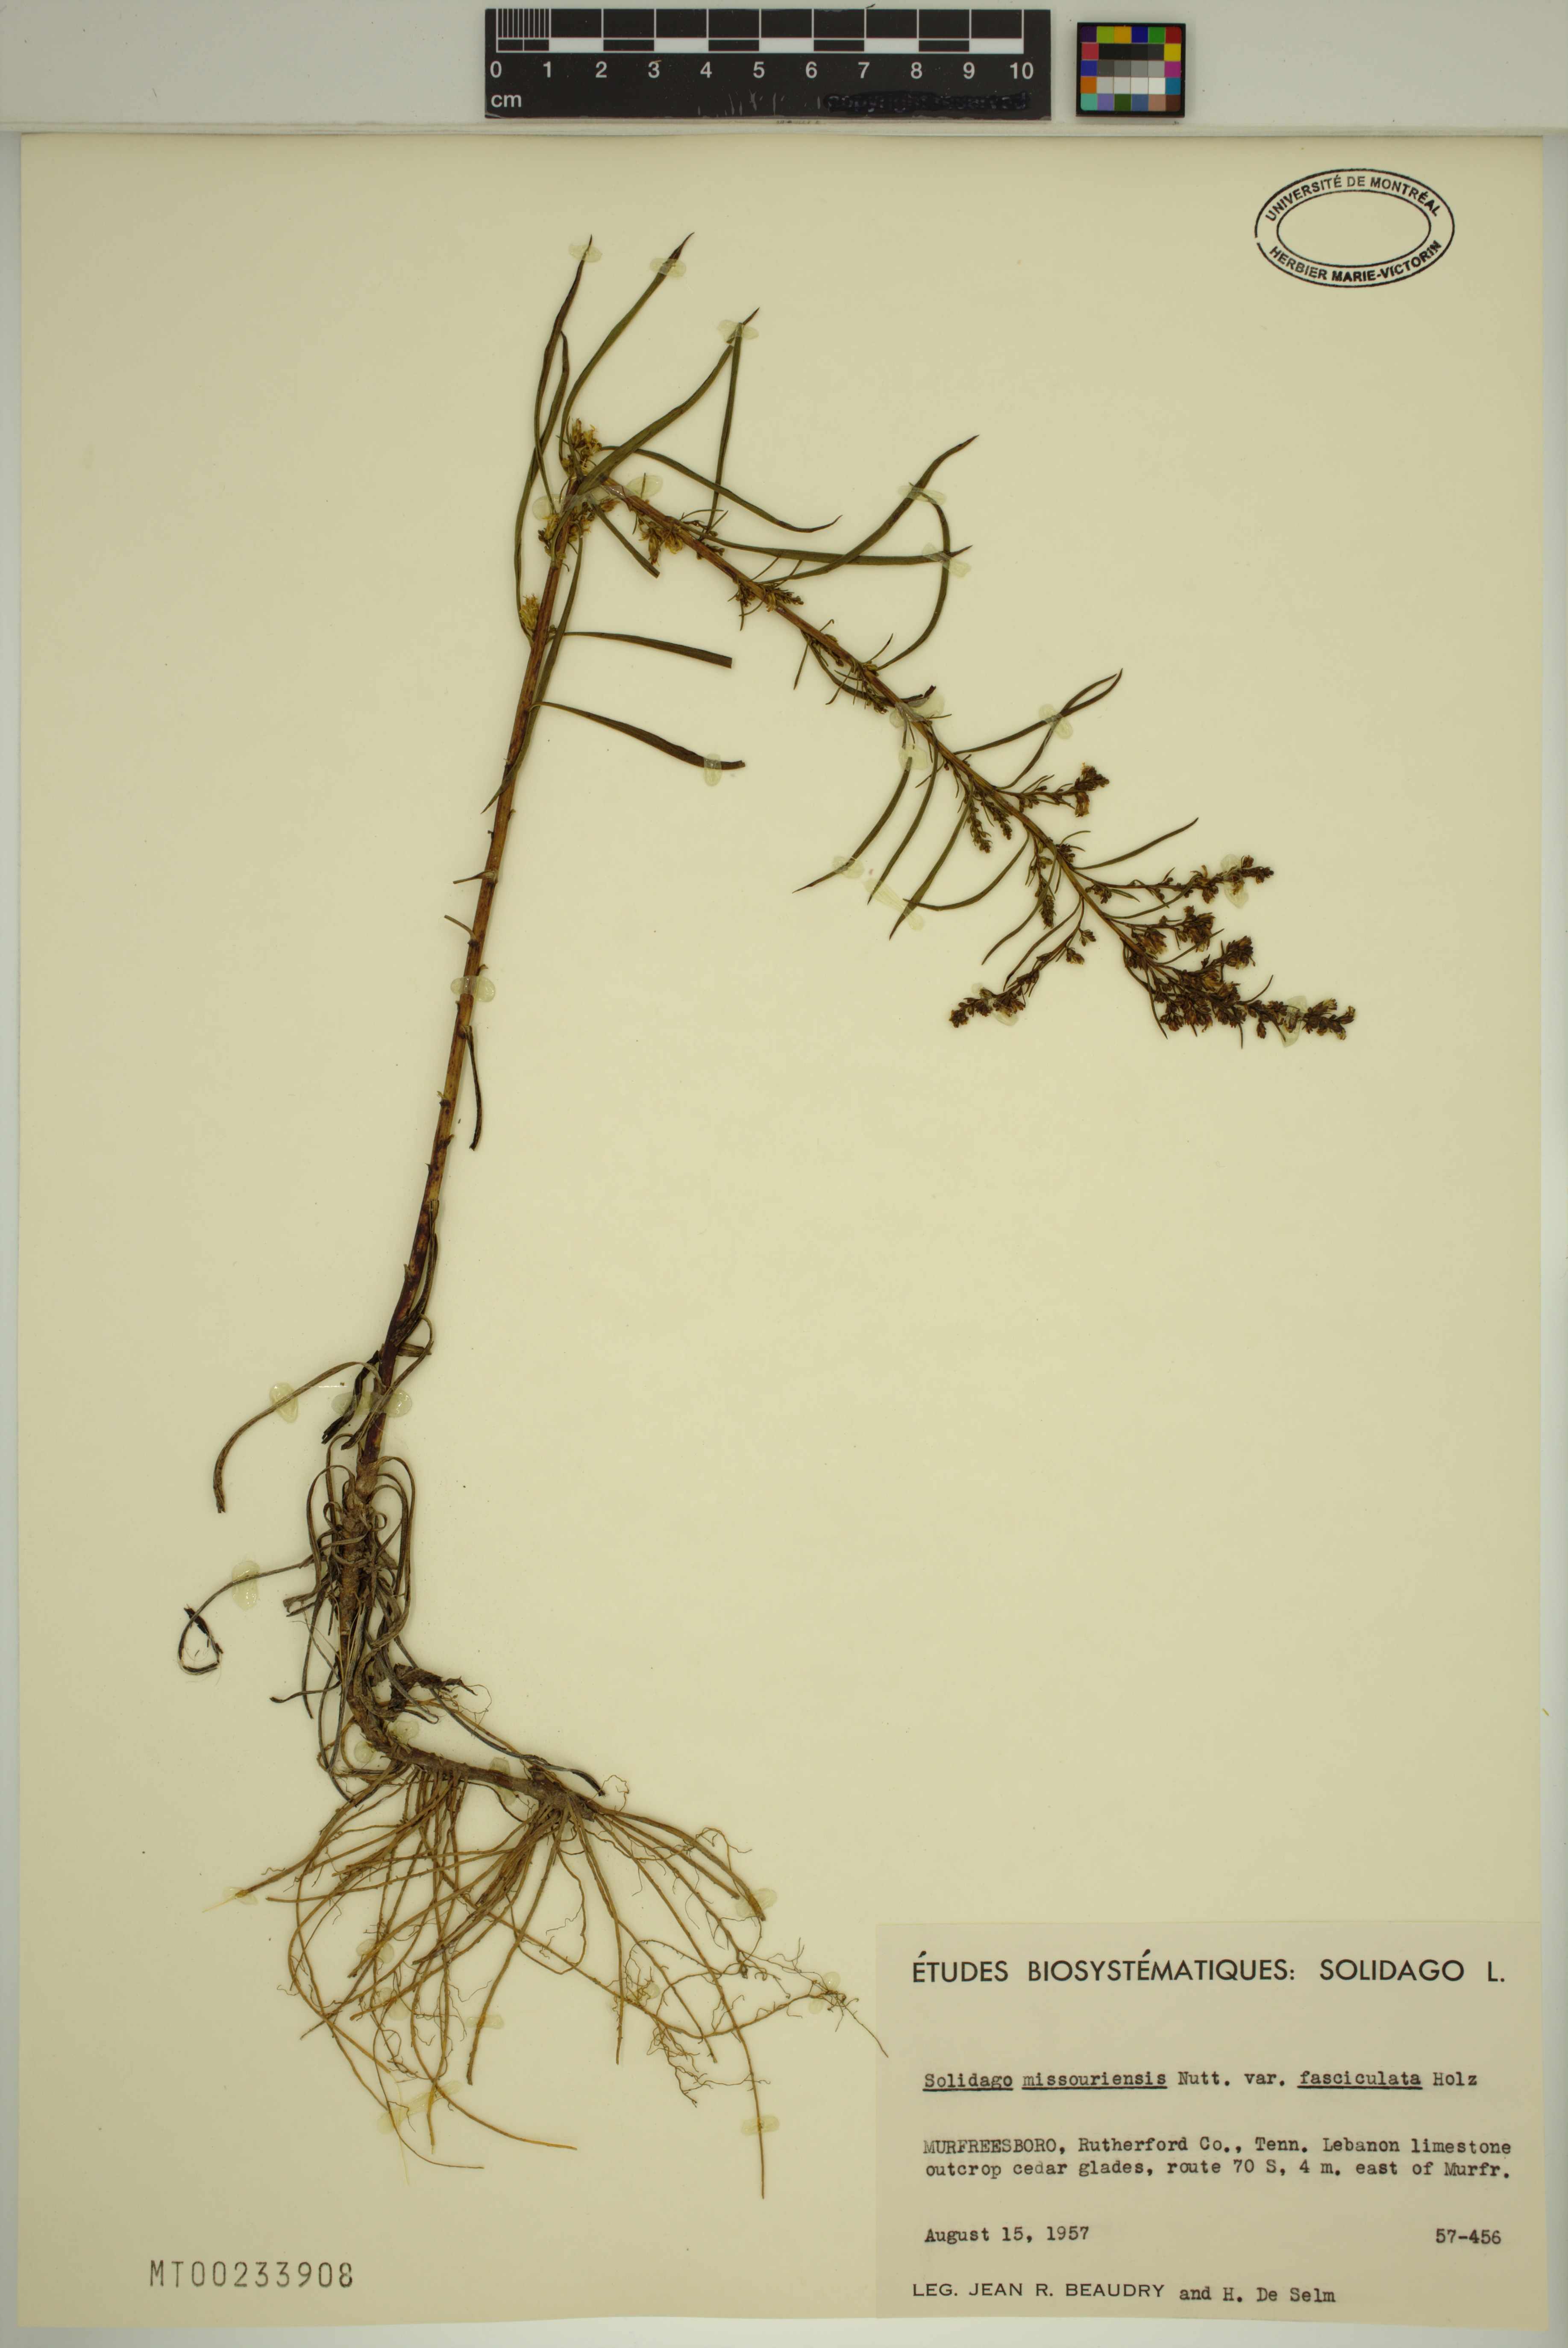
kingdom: Plantae
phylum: Tracheophyta
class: Magnoliopsida
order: Asterales
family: Asteraceae
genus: Solidago
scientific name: Solidago missouriensis
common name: Prairie goldenrod
